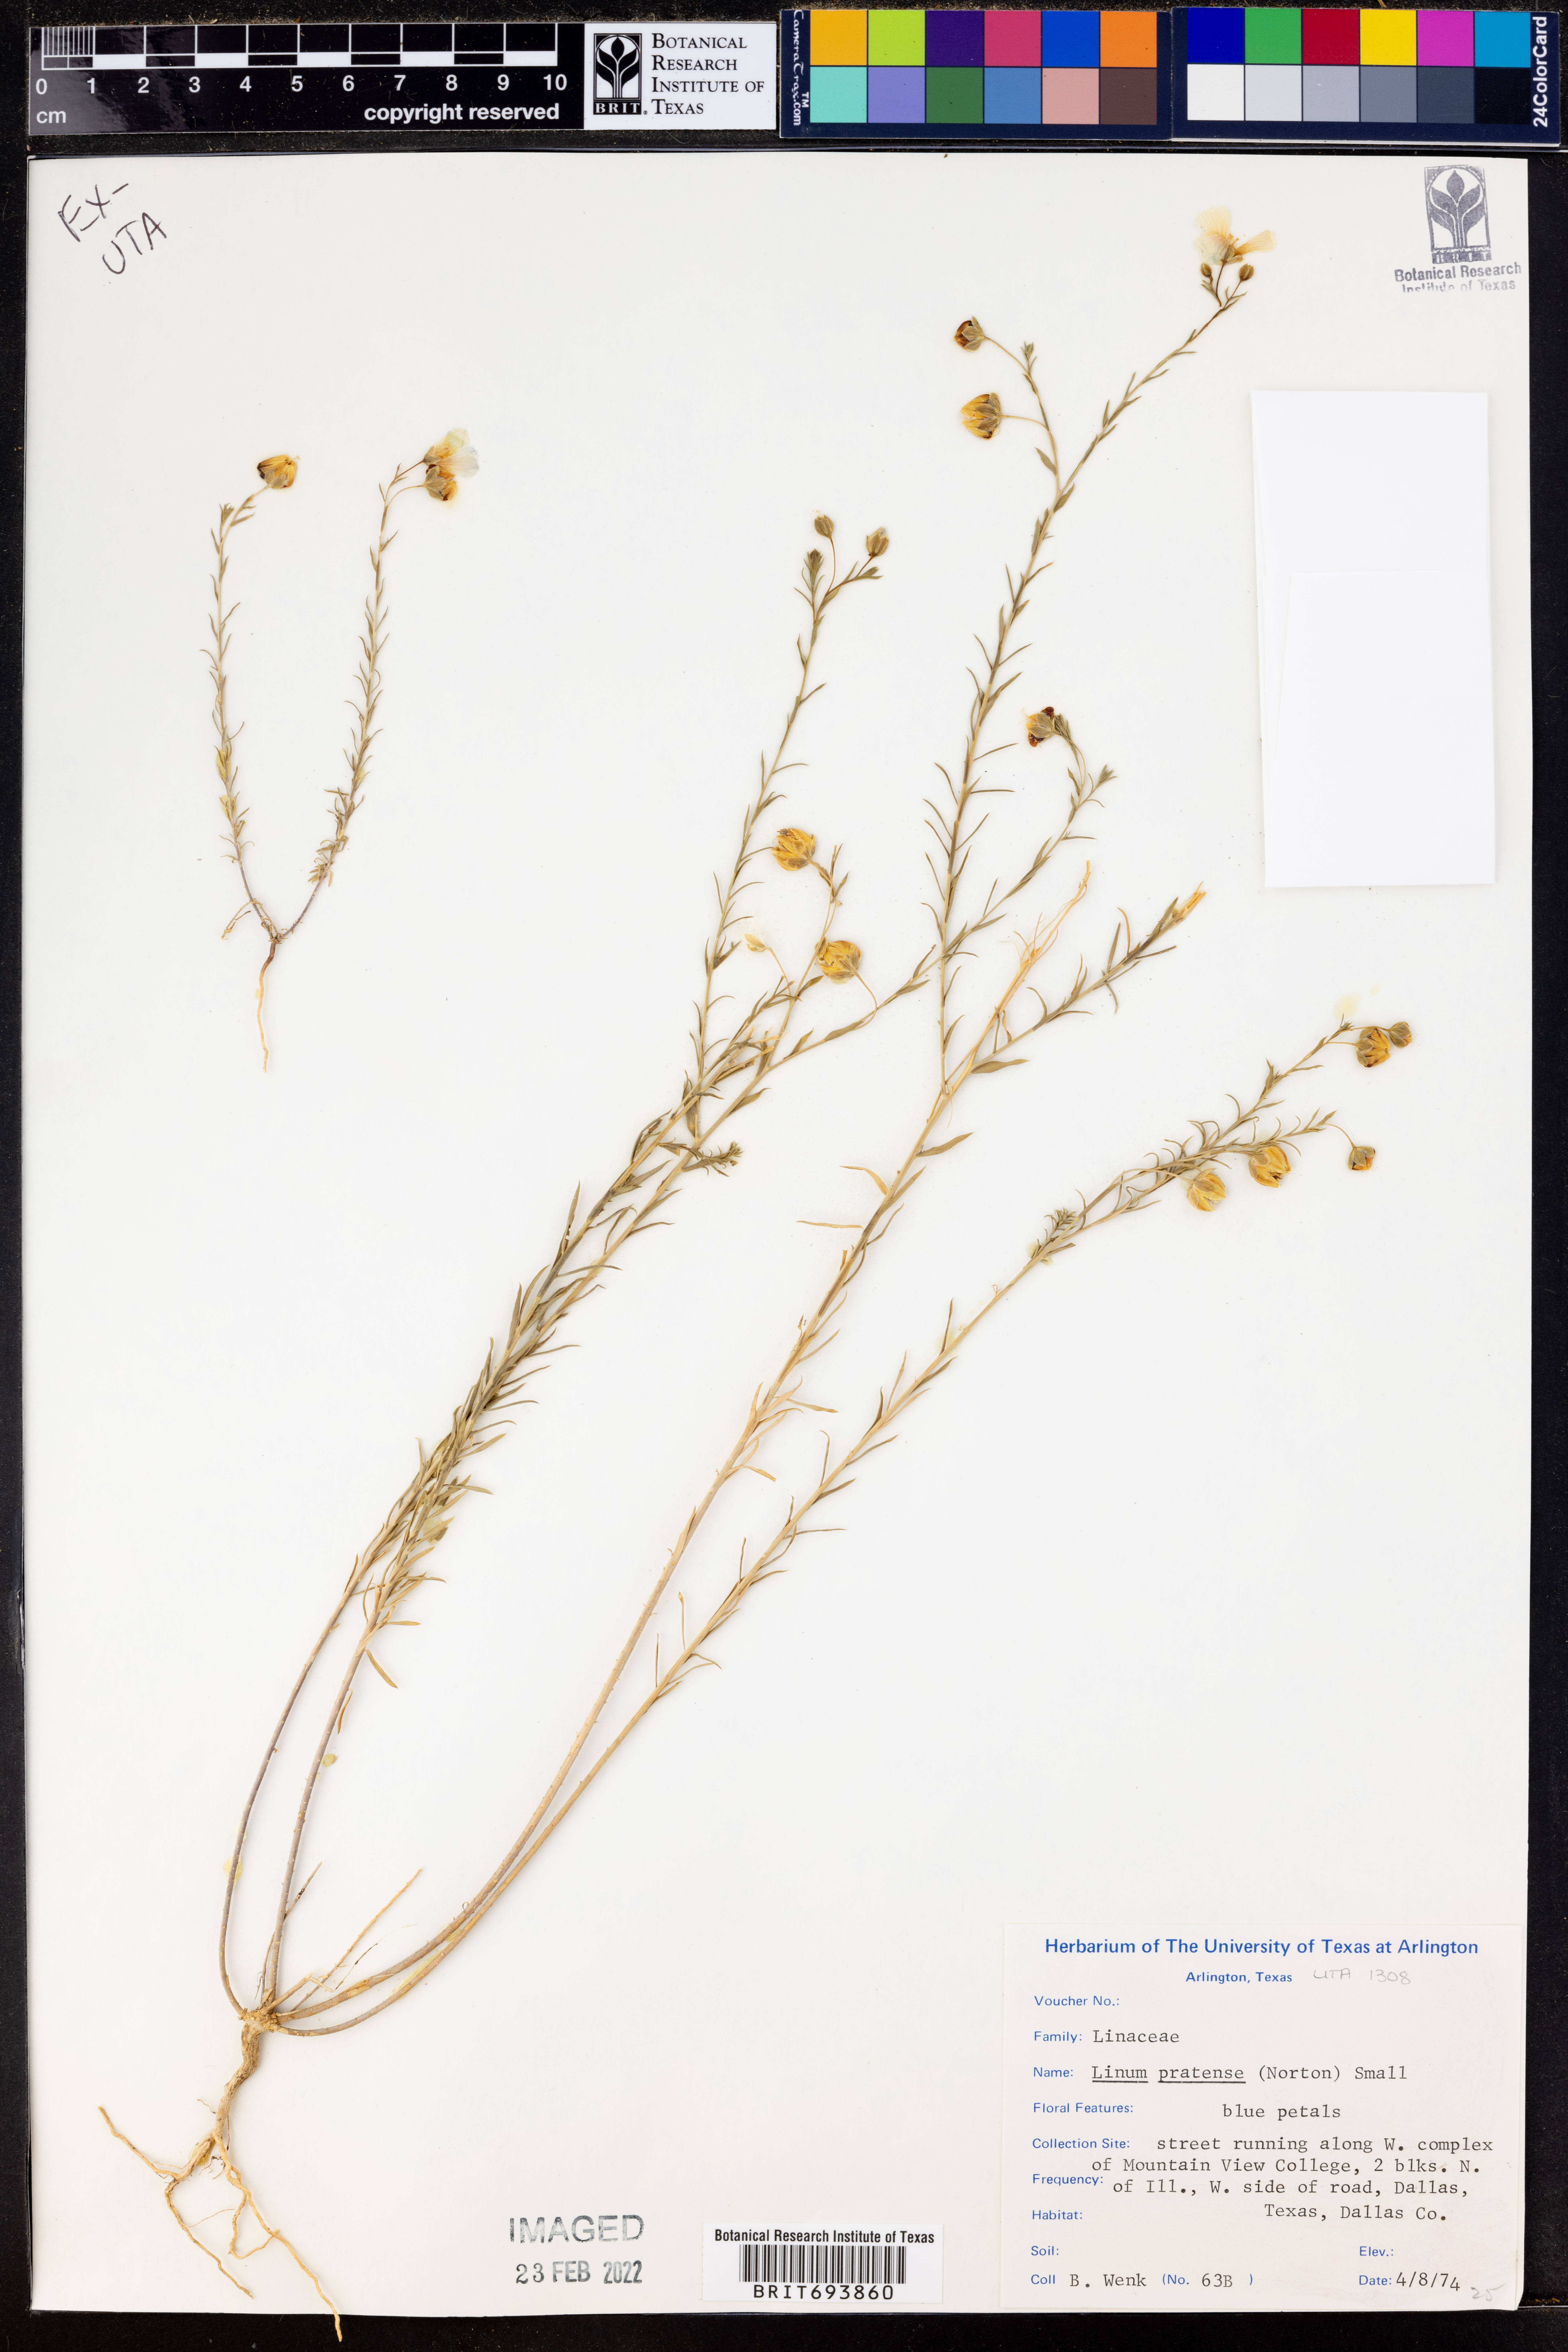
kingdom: Plantae
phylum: Tracheophyta
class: Magnoliopsida
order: Malpighiales
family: Linaceae
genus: Linum
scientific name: Linum pratense
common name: Norton's flax
